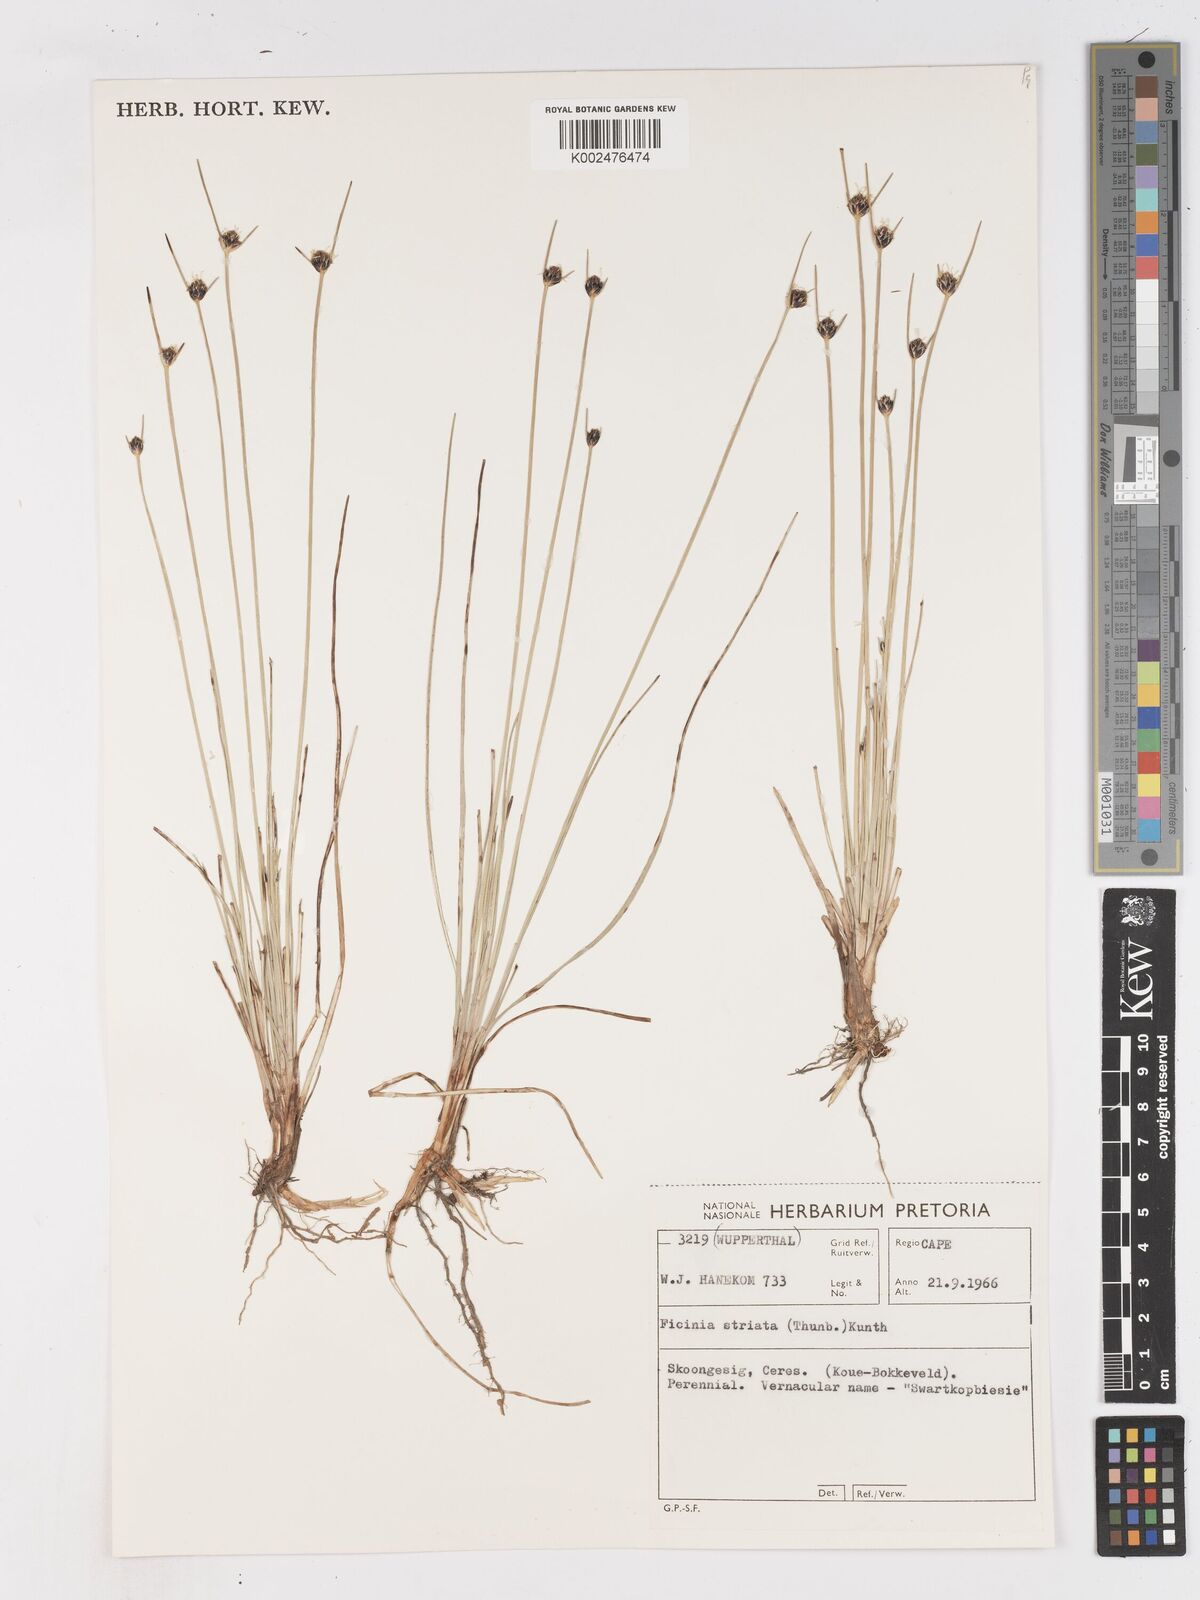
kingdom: Plantae
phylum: Tracheophyta
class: Liliopsida
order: Poales
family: Cyperaceae
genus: Ficinia
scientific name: Ficinia indica
